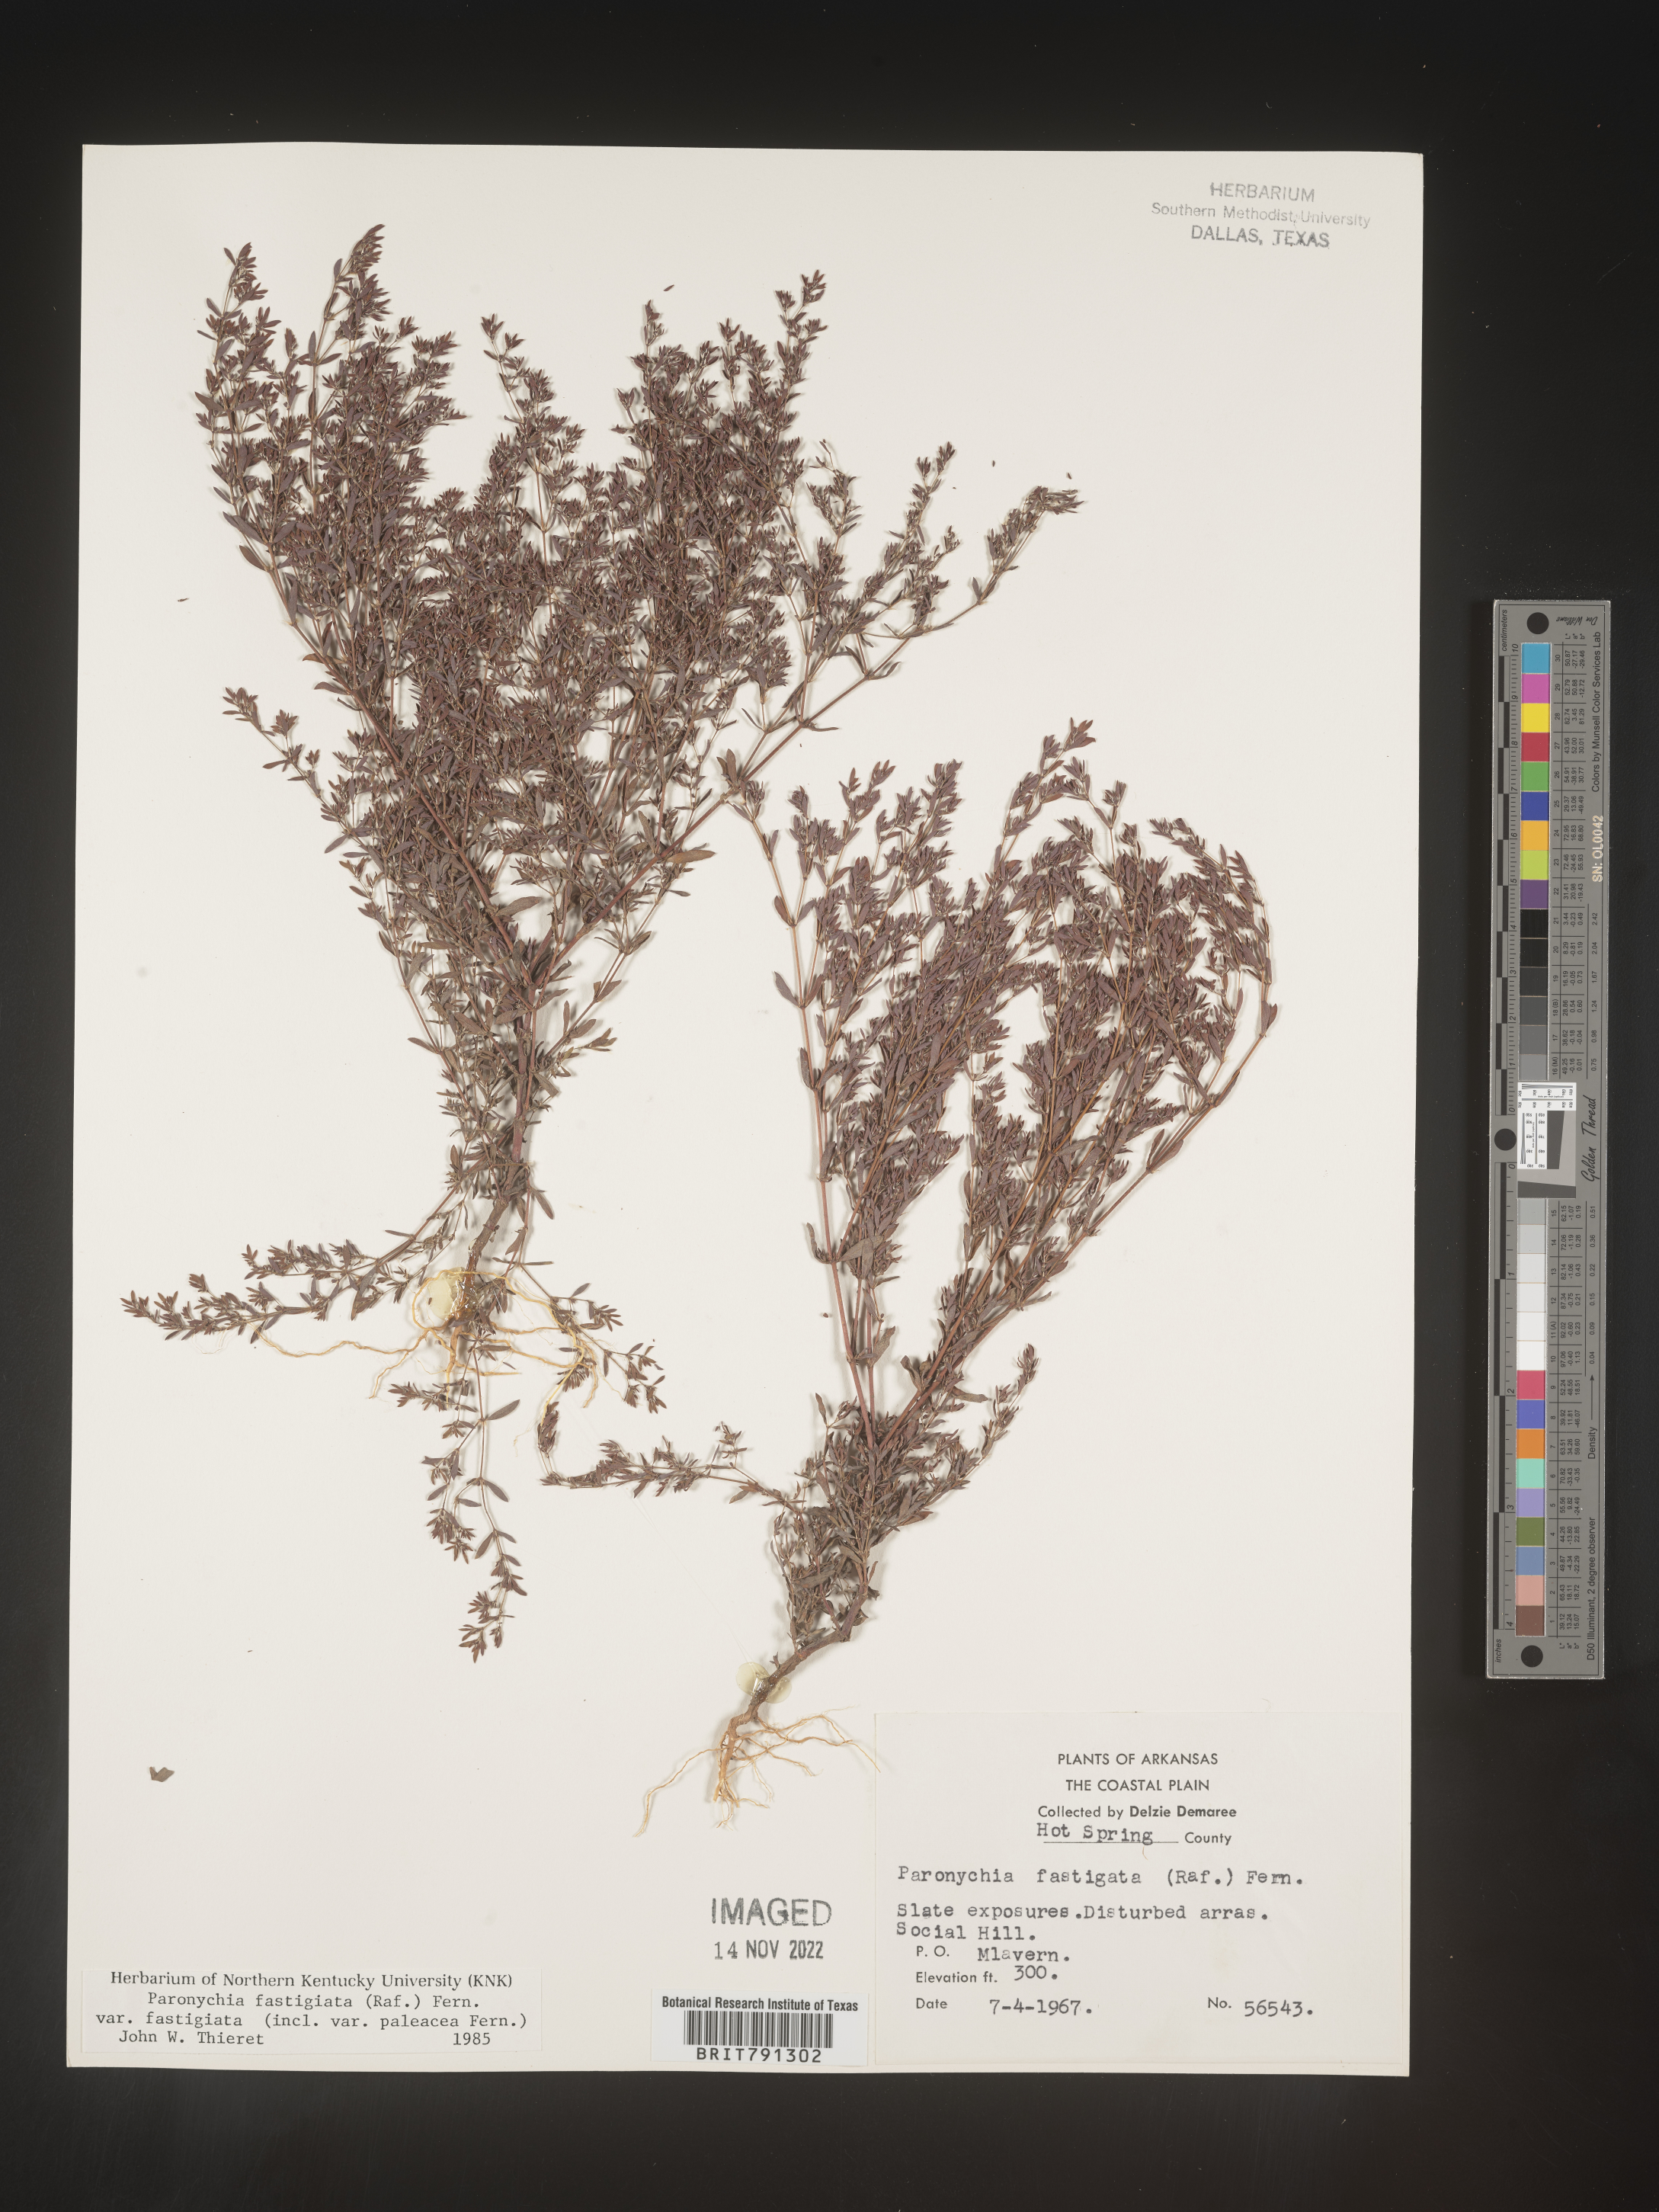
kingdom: Plantae
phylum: Tracheophyta
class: Magnoliopsida
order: Caryophyllales
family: Caryophyllaceae
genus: Paronychia
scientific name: Paronychia fastigiata
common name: Branching forked whitlow-wort
